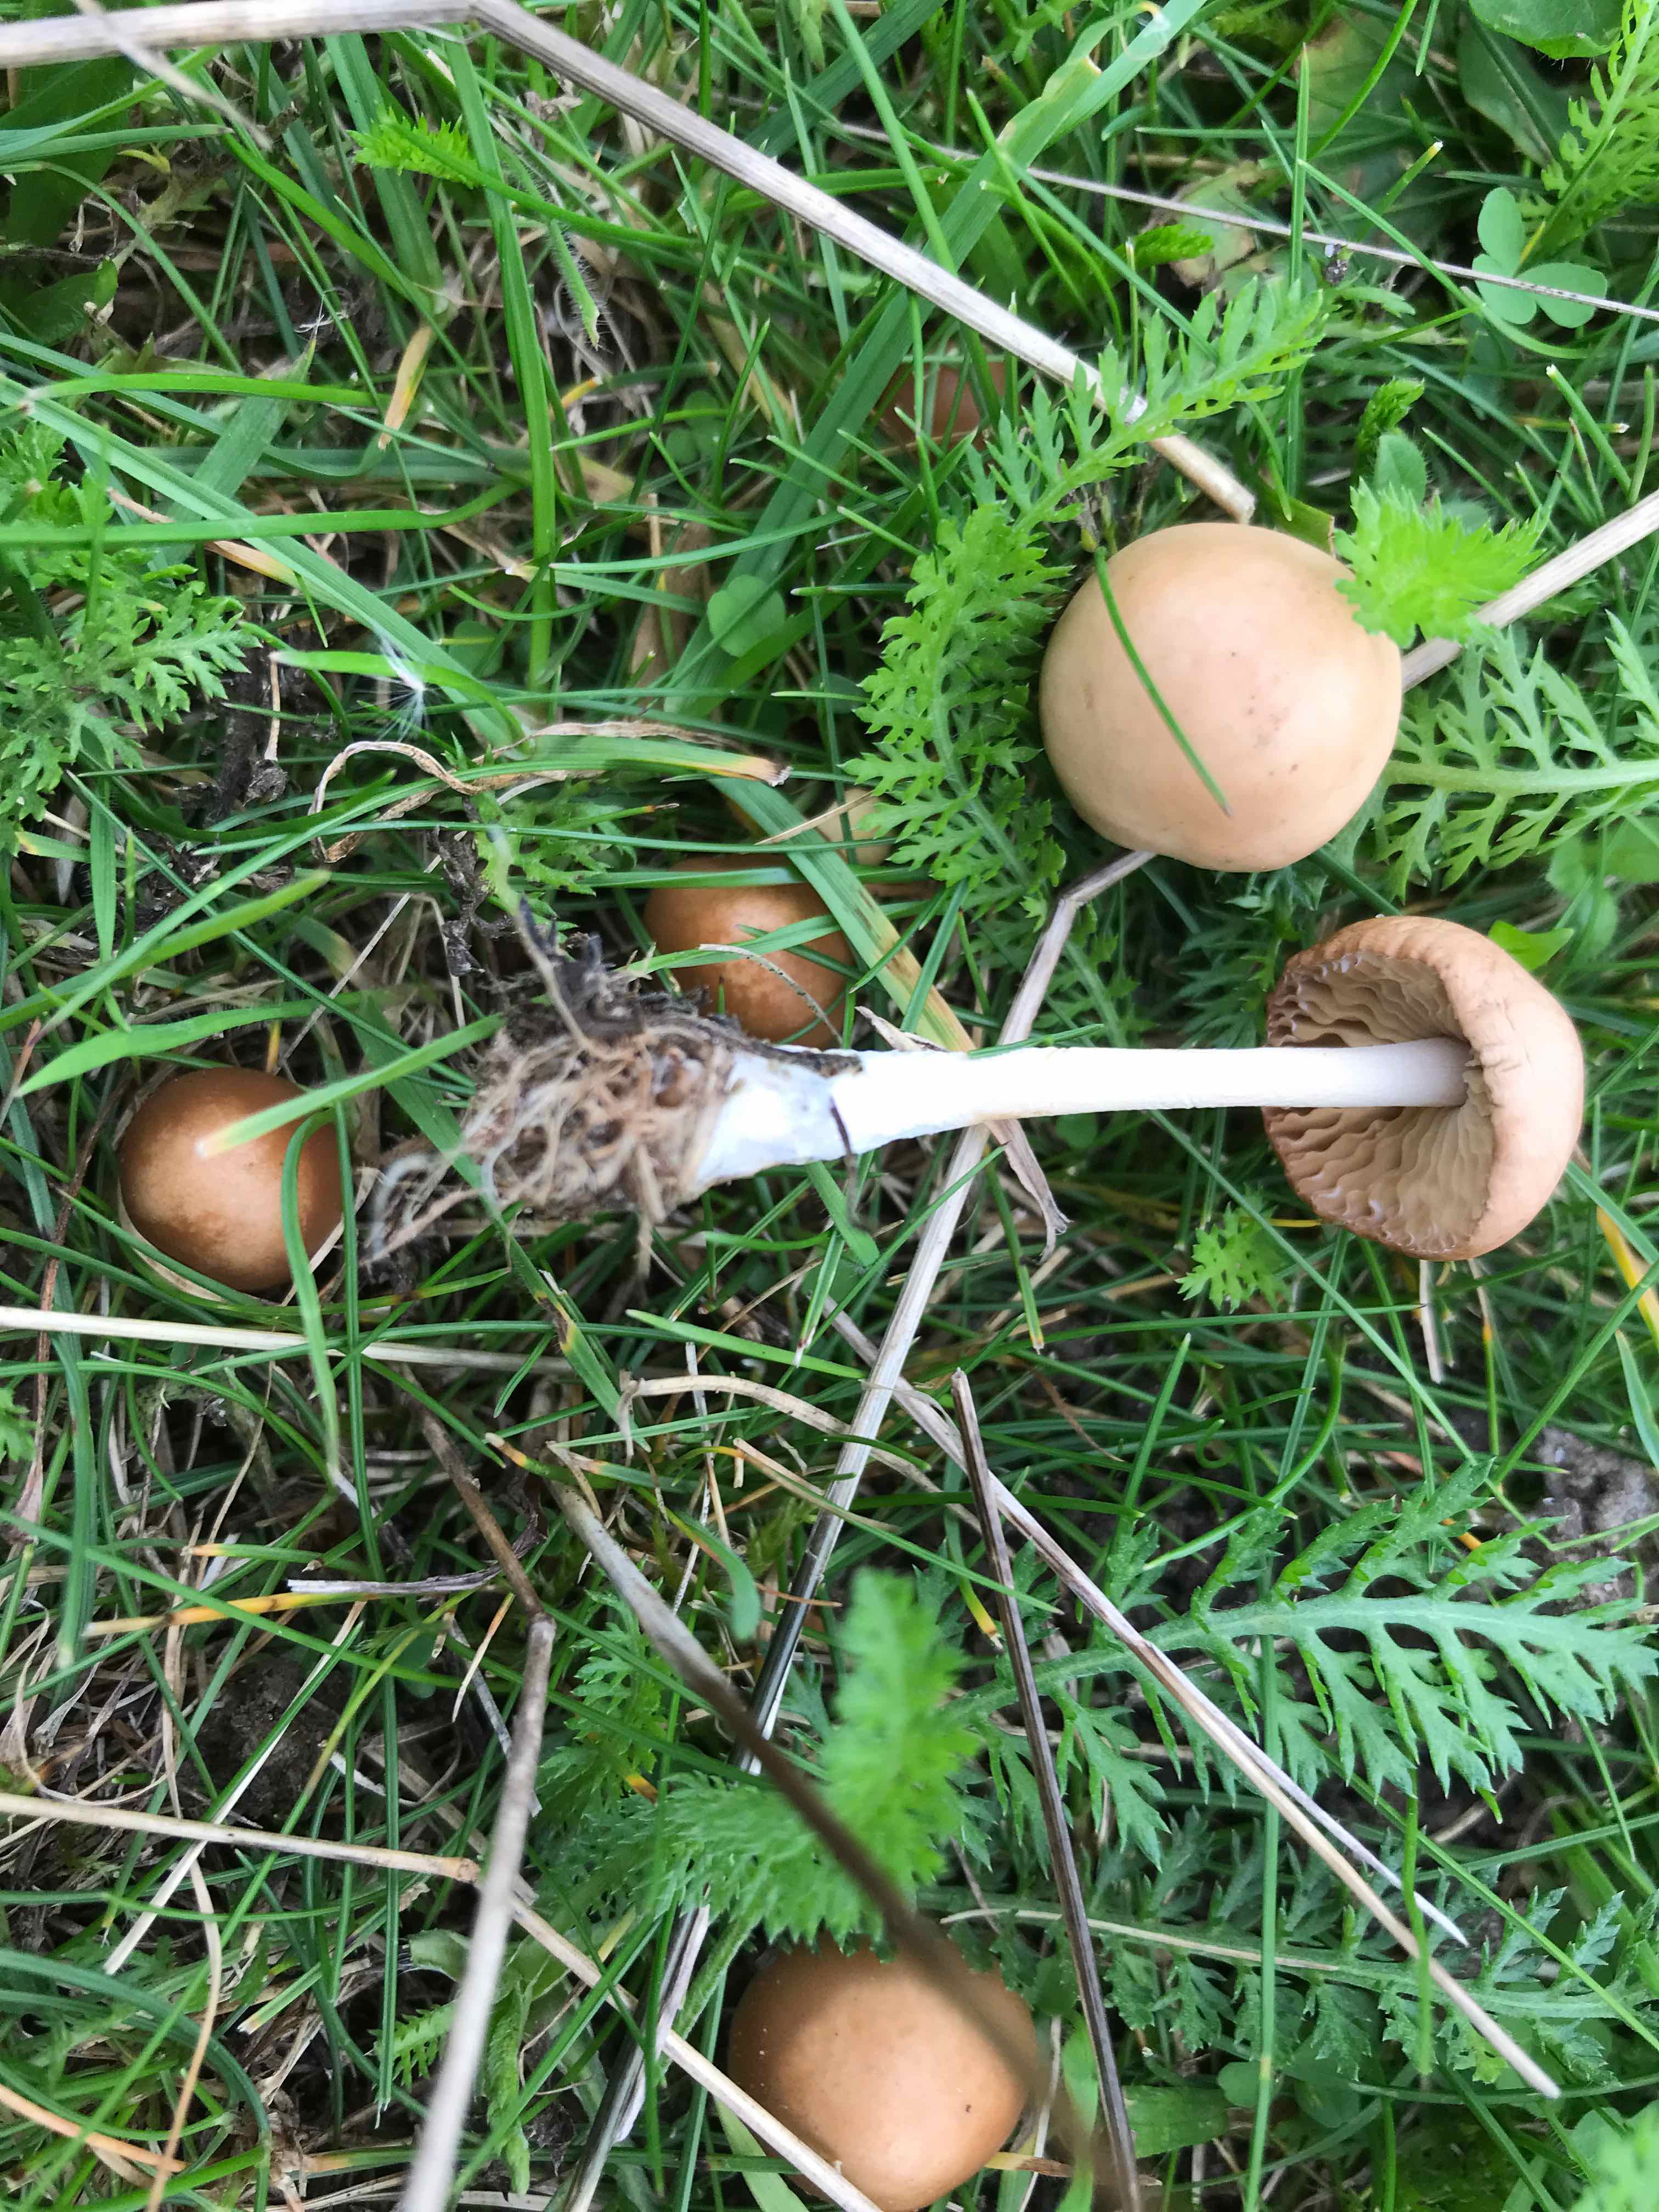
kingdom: Fungi
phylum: Basidiomycota
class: Agaricomycetes
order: Agaricales
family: Marasmiaceae
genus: Marasmius
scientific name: Marasmius oreades
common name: elledans-bruskhat
